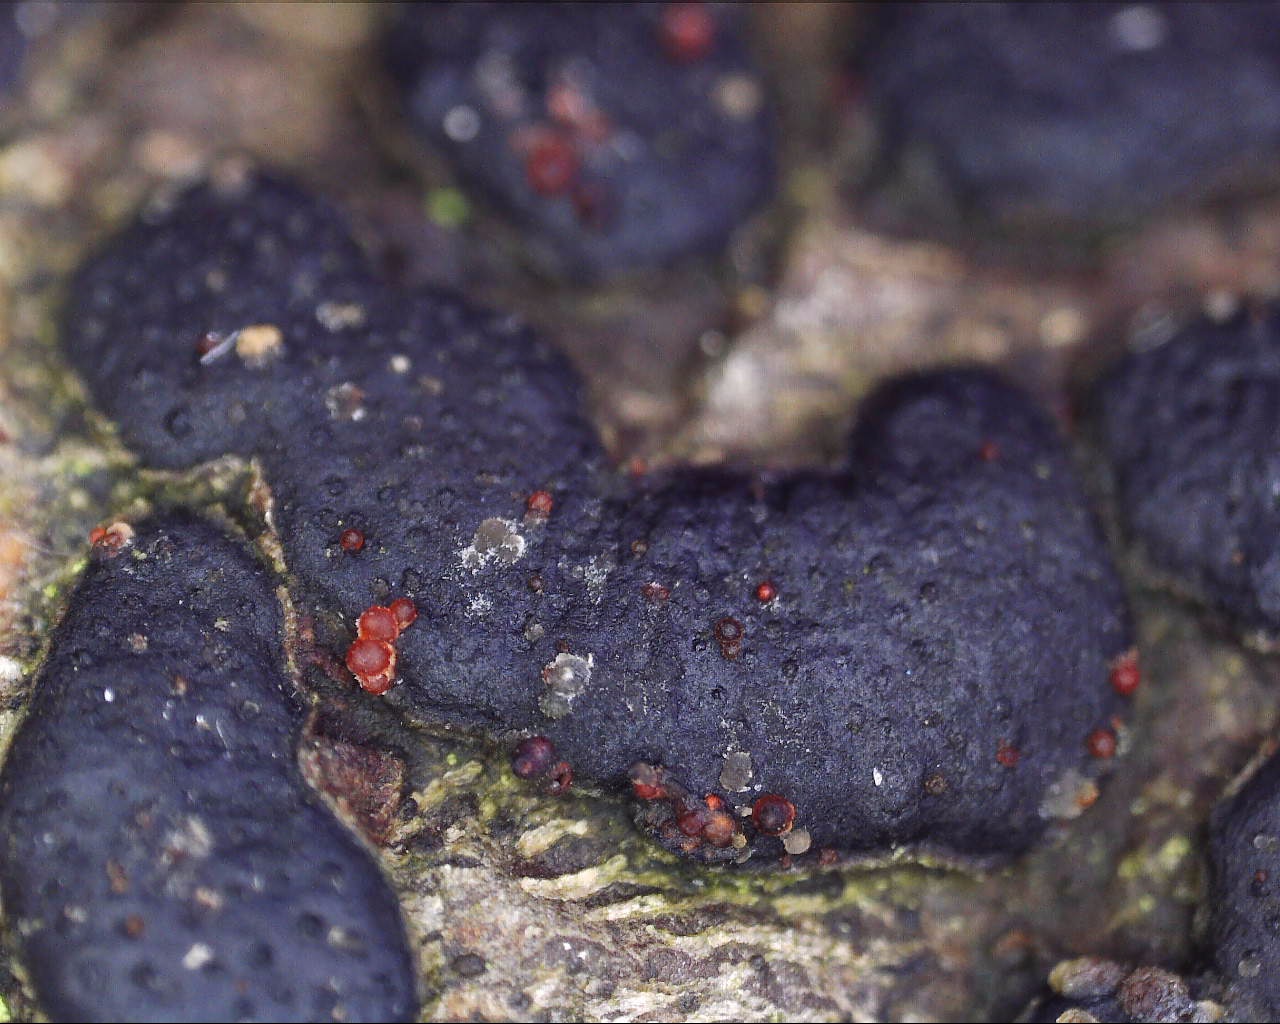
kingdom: Fungi
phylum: Ascomycota
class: Sordariomycetes
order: Hypocreales
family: Nectriaceae
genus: Dialonectria
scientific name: Dialonectria diatrypicola
